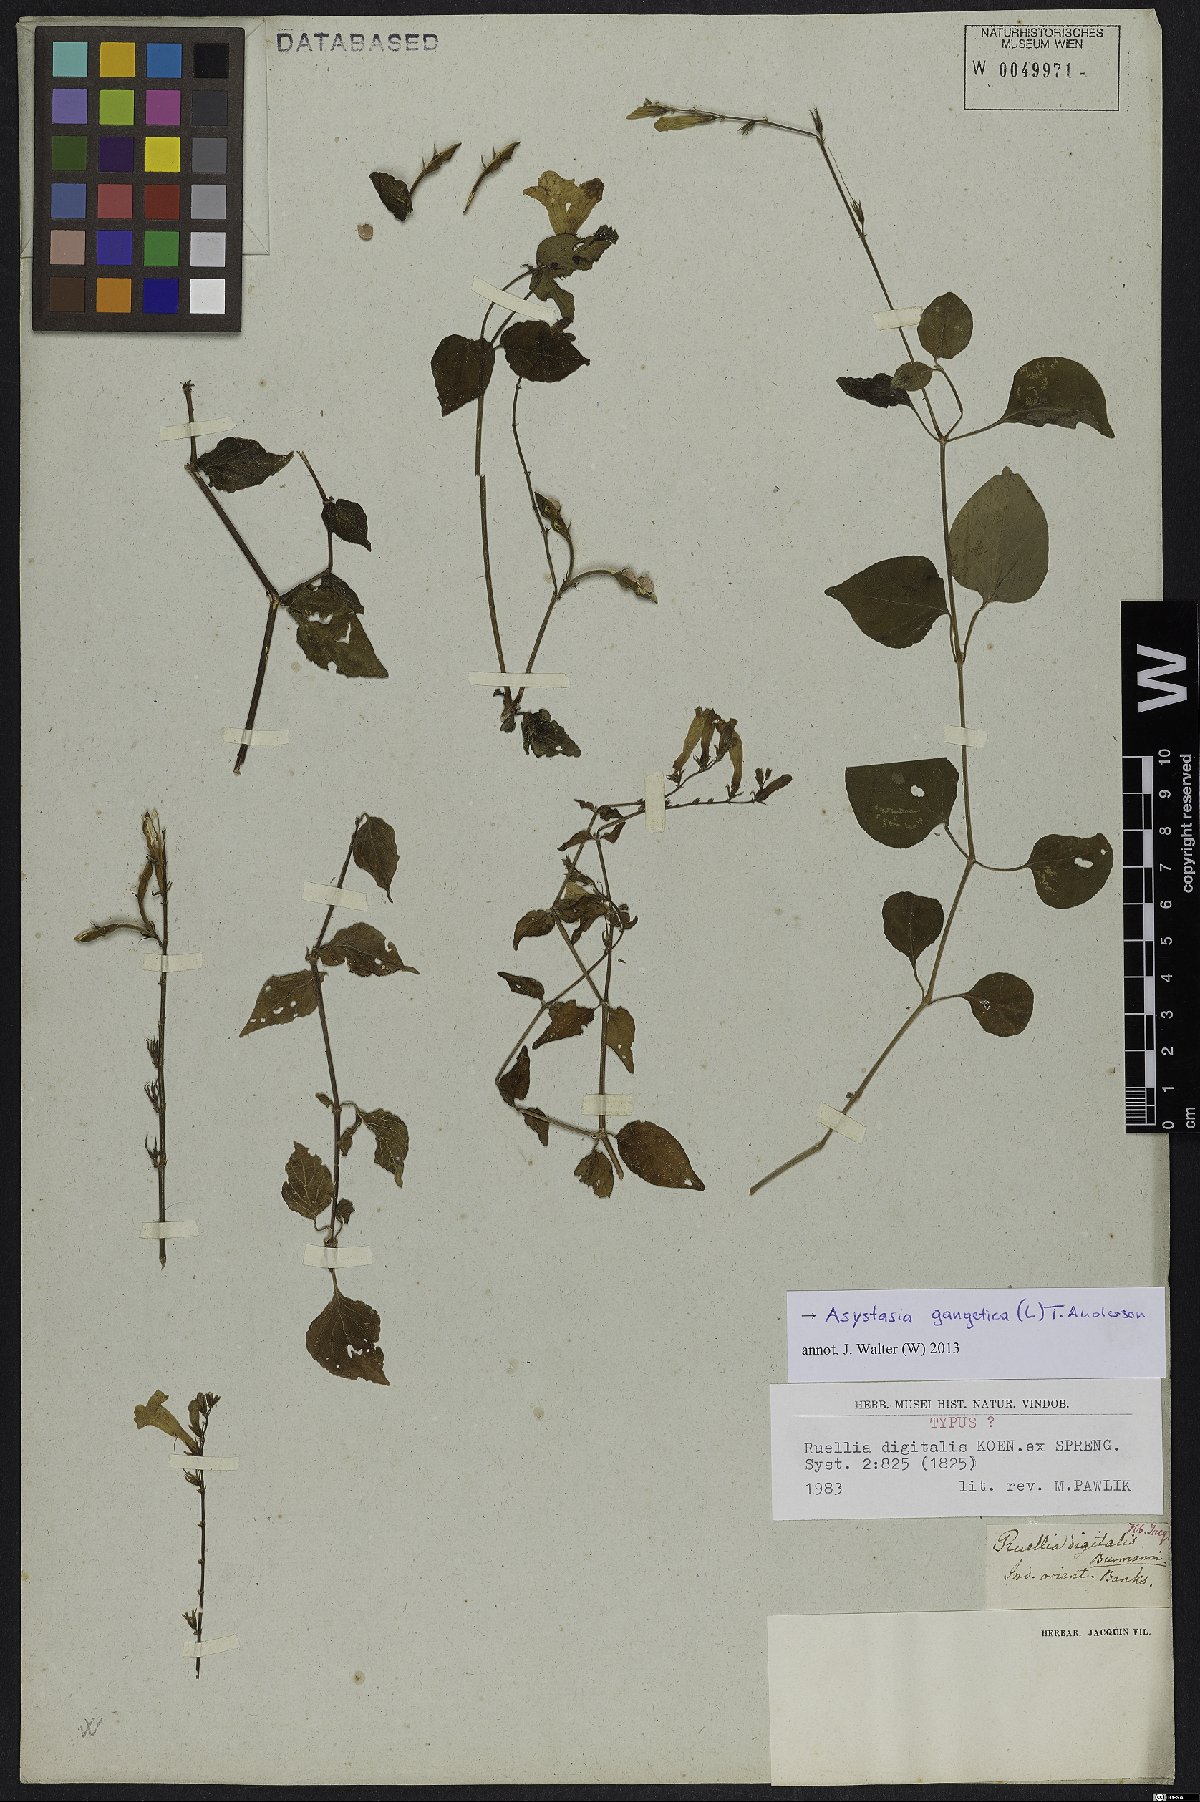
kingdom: Plantae
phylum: Tracheophyta
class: Magnoliopsida
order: Lamiales
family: Acanthaceae
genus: Asystasia
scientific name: Asystasia gangetica
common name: Chinese violet
